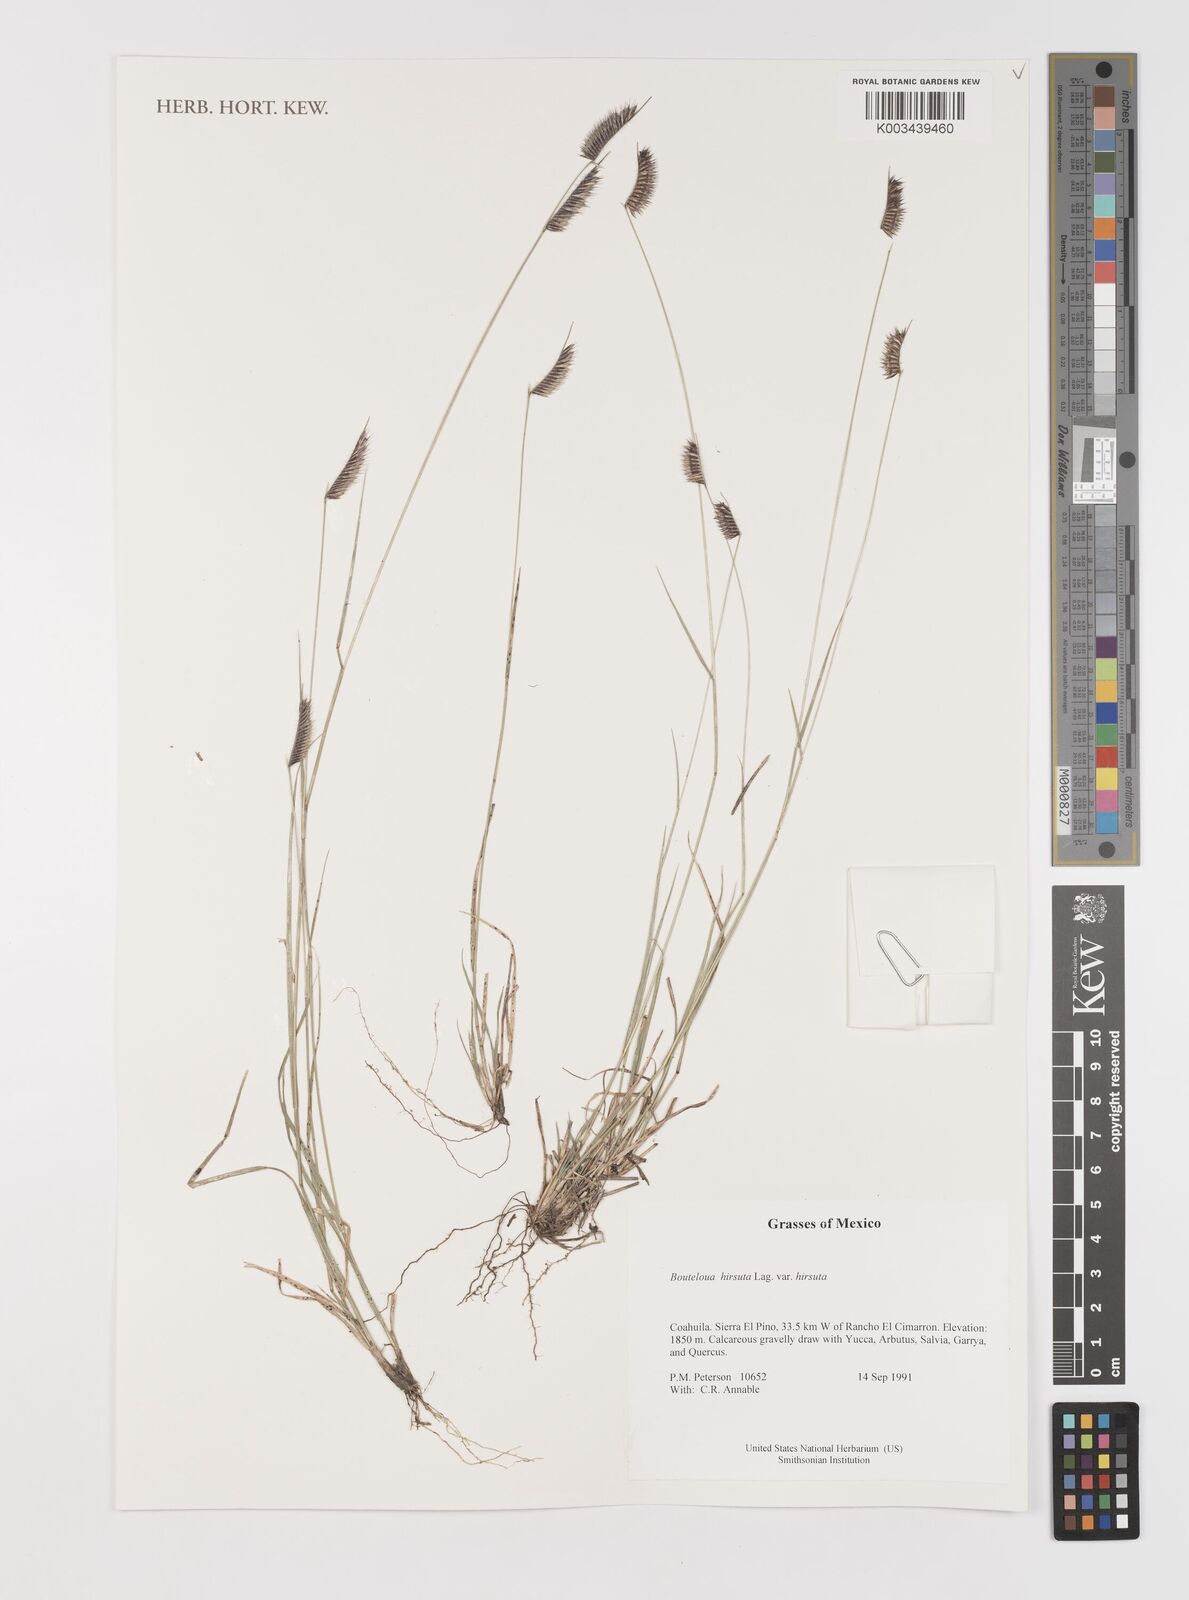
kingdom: Plantae
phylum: Tracheophyta
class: Liliopsida
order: Poales
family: Poaceae
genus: Bouteloua
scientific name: Bouteloua hirsuta
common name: Hairy grama
